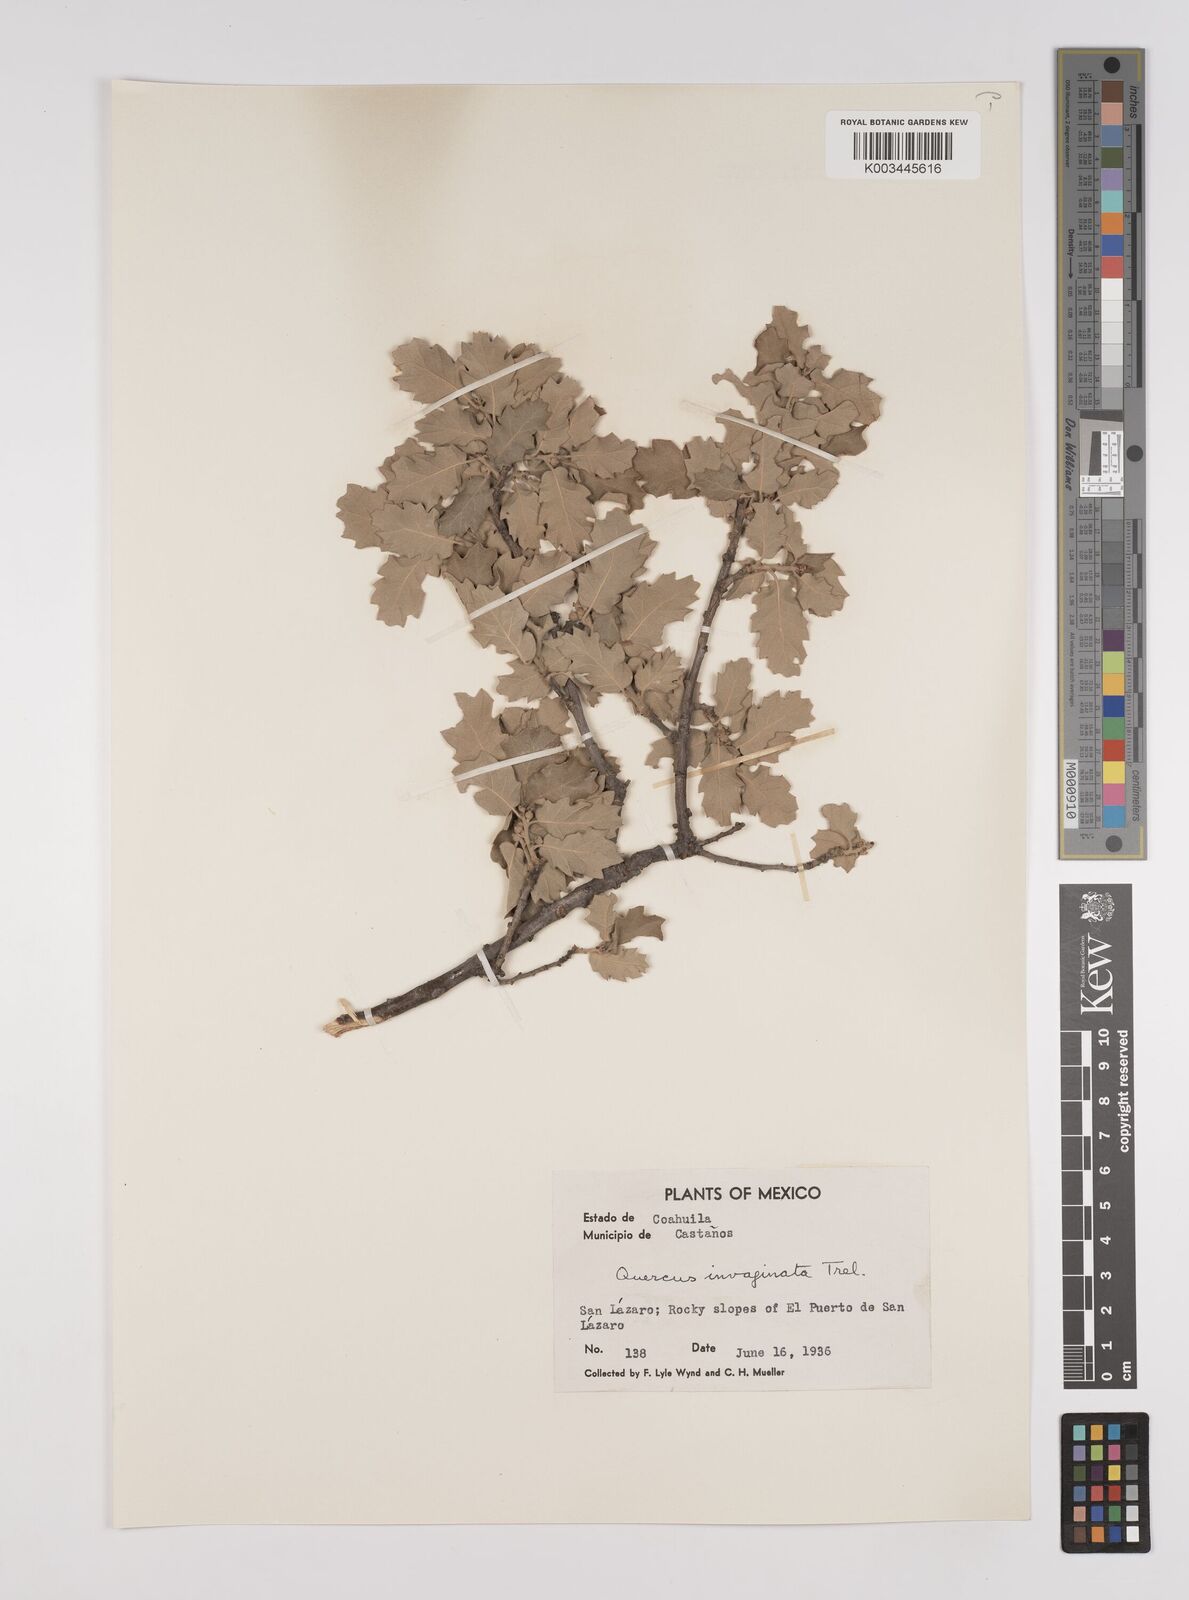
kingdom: Plantae
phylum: Tracheophyta
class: Magnoliopsida
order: Fagales
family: Fagaceae
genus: Quercus
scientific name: Quercus invaginata
